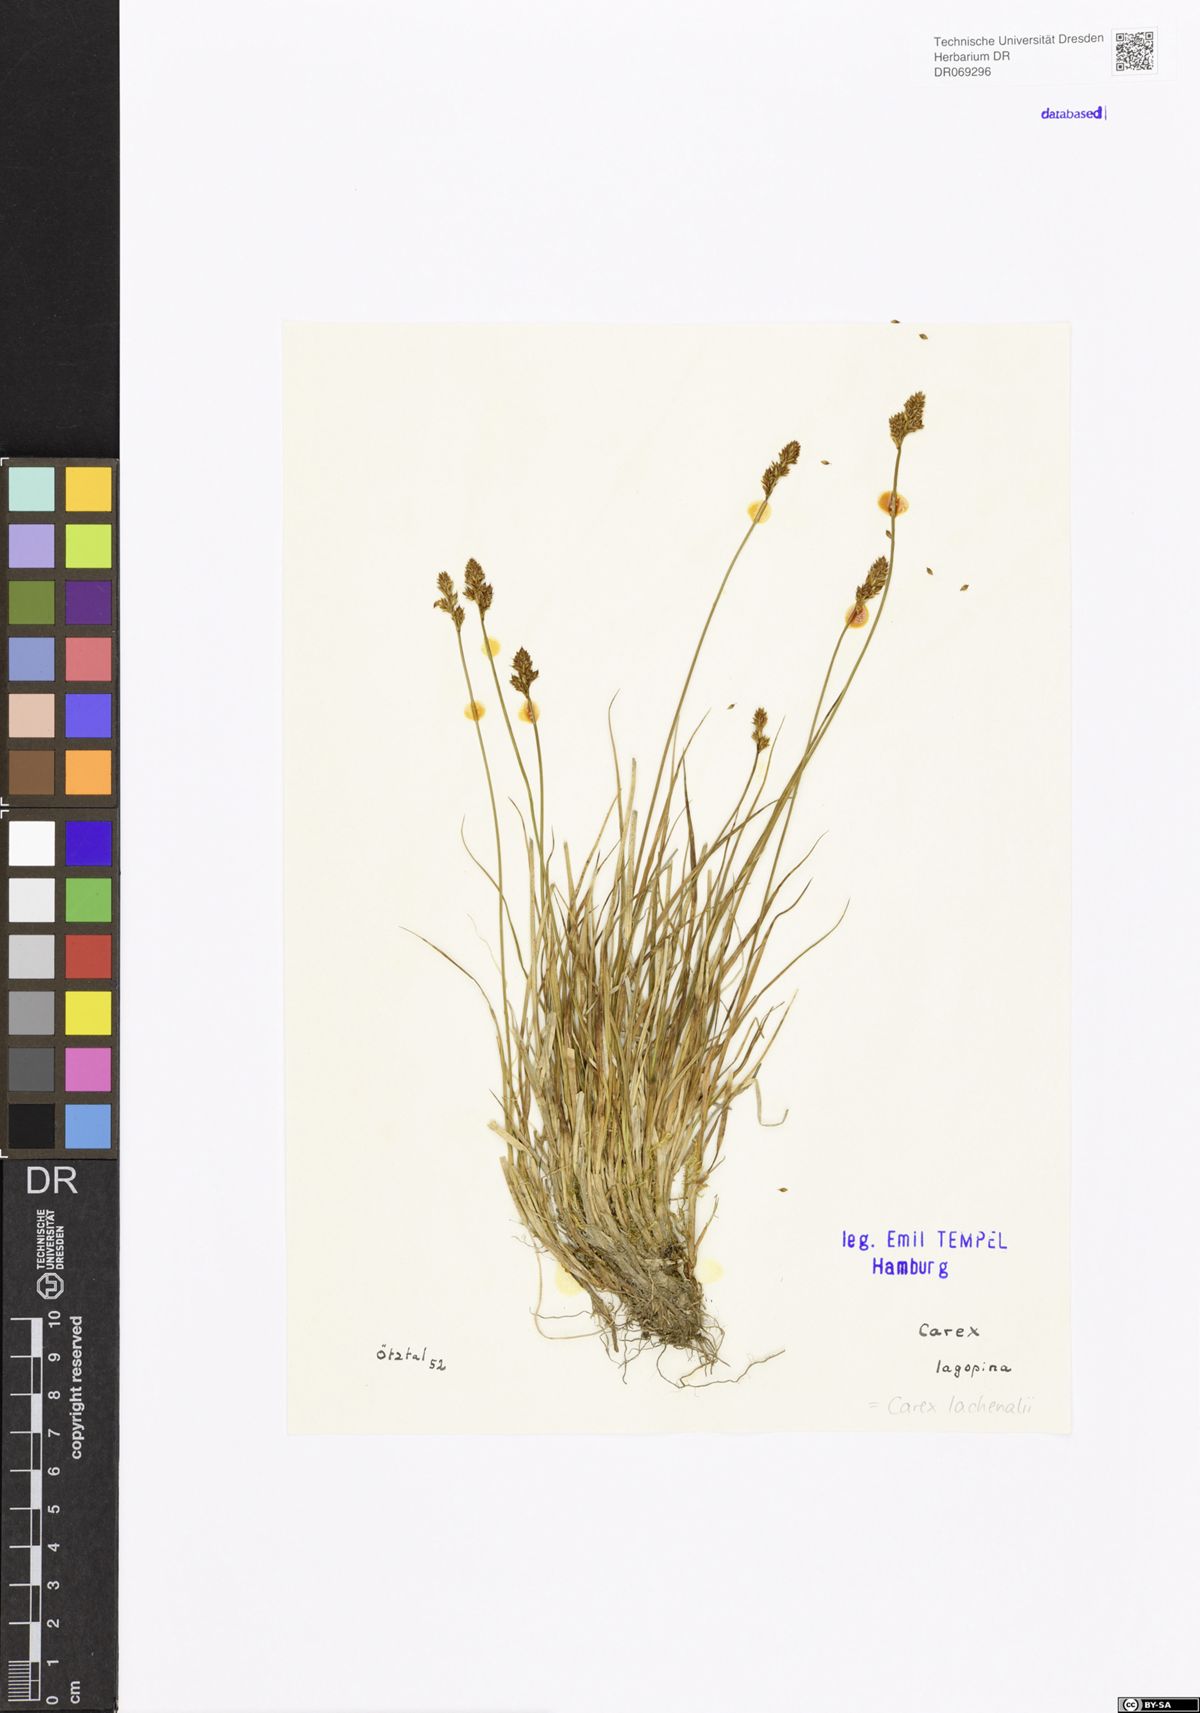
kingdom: Plantae
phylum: Tracheophyta
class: Liliopsida
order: Poales
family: Cyperaceae
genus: Carex
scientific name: Carex lachenalii
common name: Hare's-foot sedge
